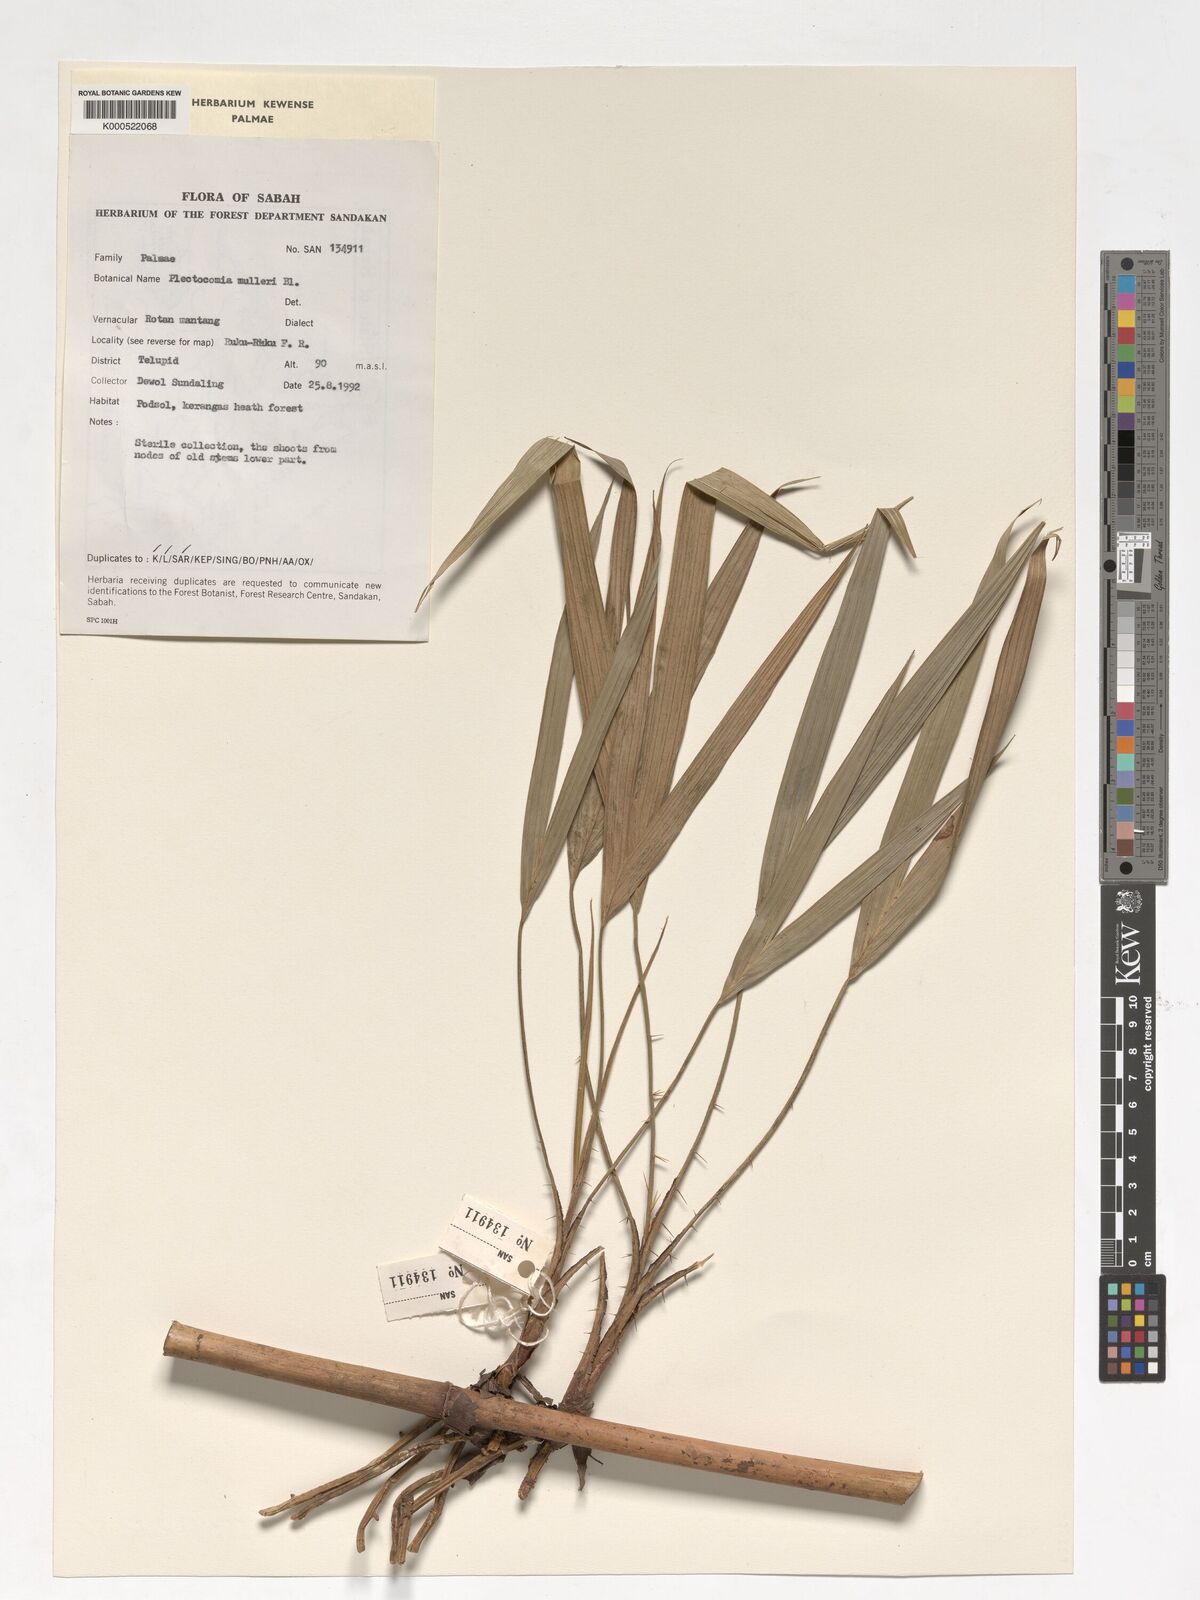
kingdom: Plantae
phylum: Tracheophyta
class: Liliopsida
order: Arecales
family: Arecaceae
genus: Plectocomia
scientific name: Plectocomia mulleri
